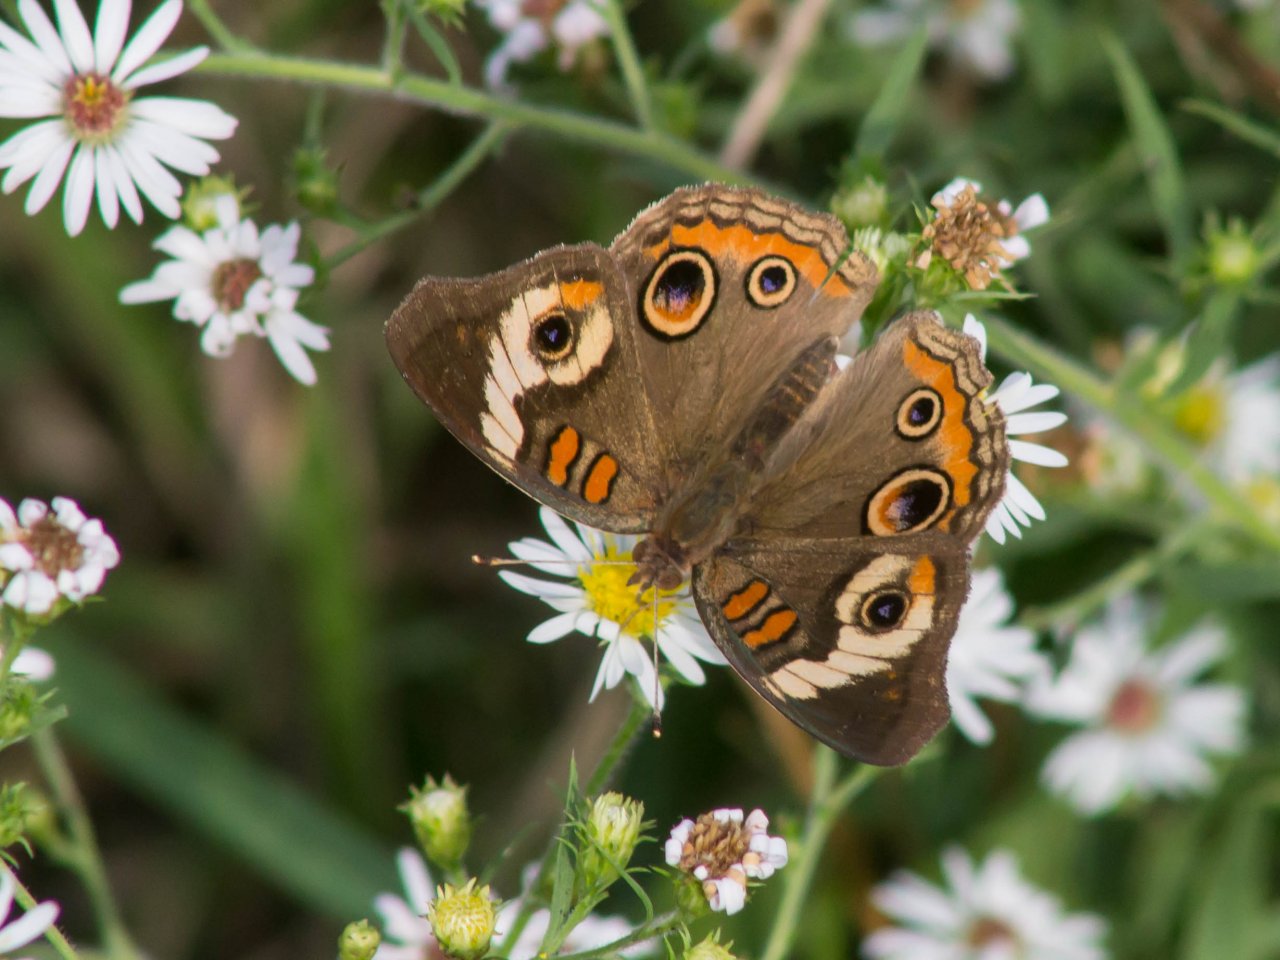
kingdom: Animalia
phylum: Arthropoda
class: Insecta
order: Lepidoptera
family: Nymphalidae
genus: Junonia
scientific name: Junonia coenia
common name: Common Buckeye
